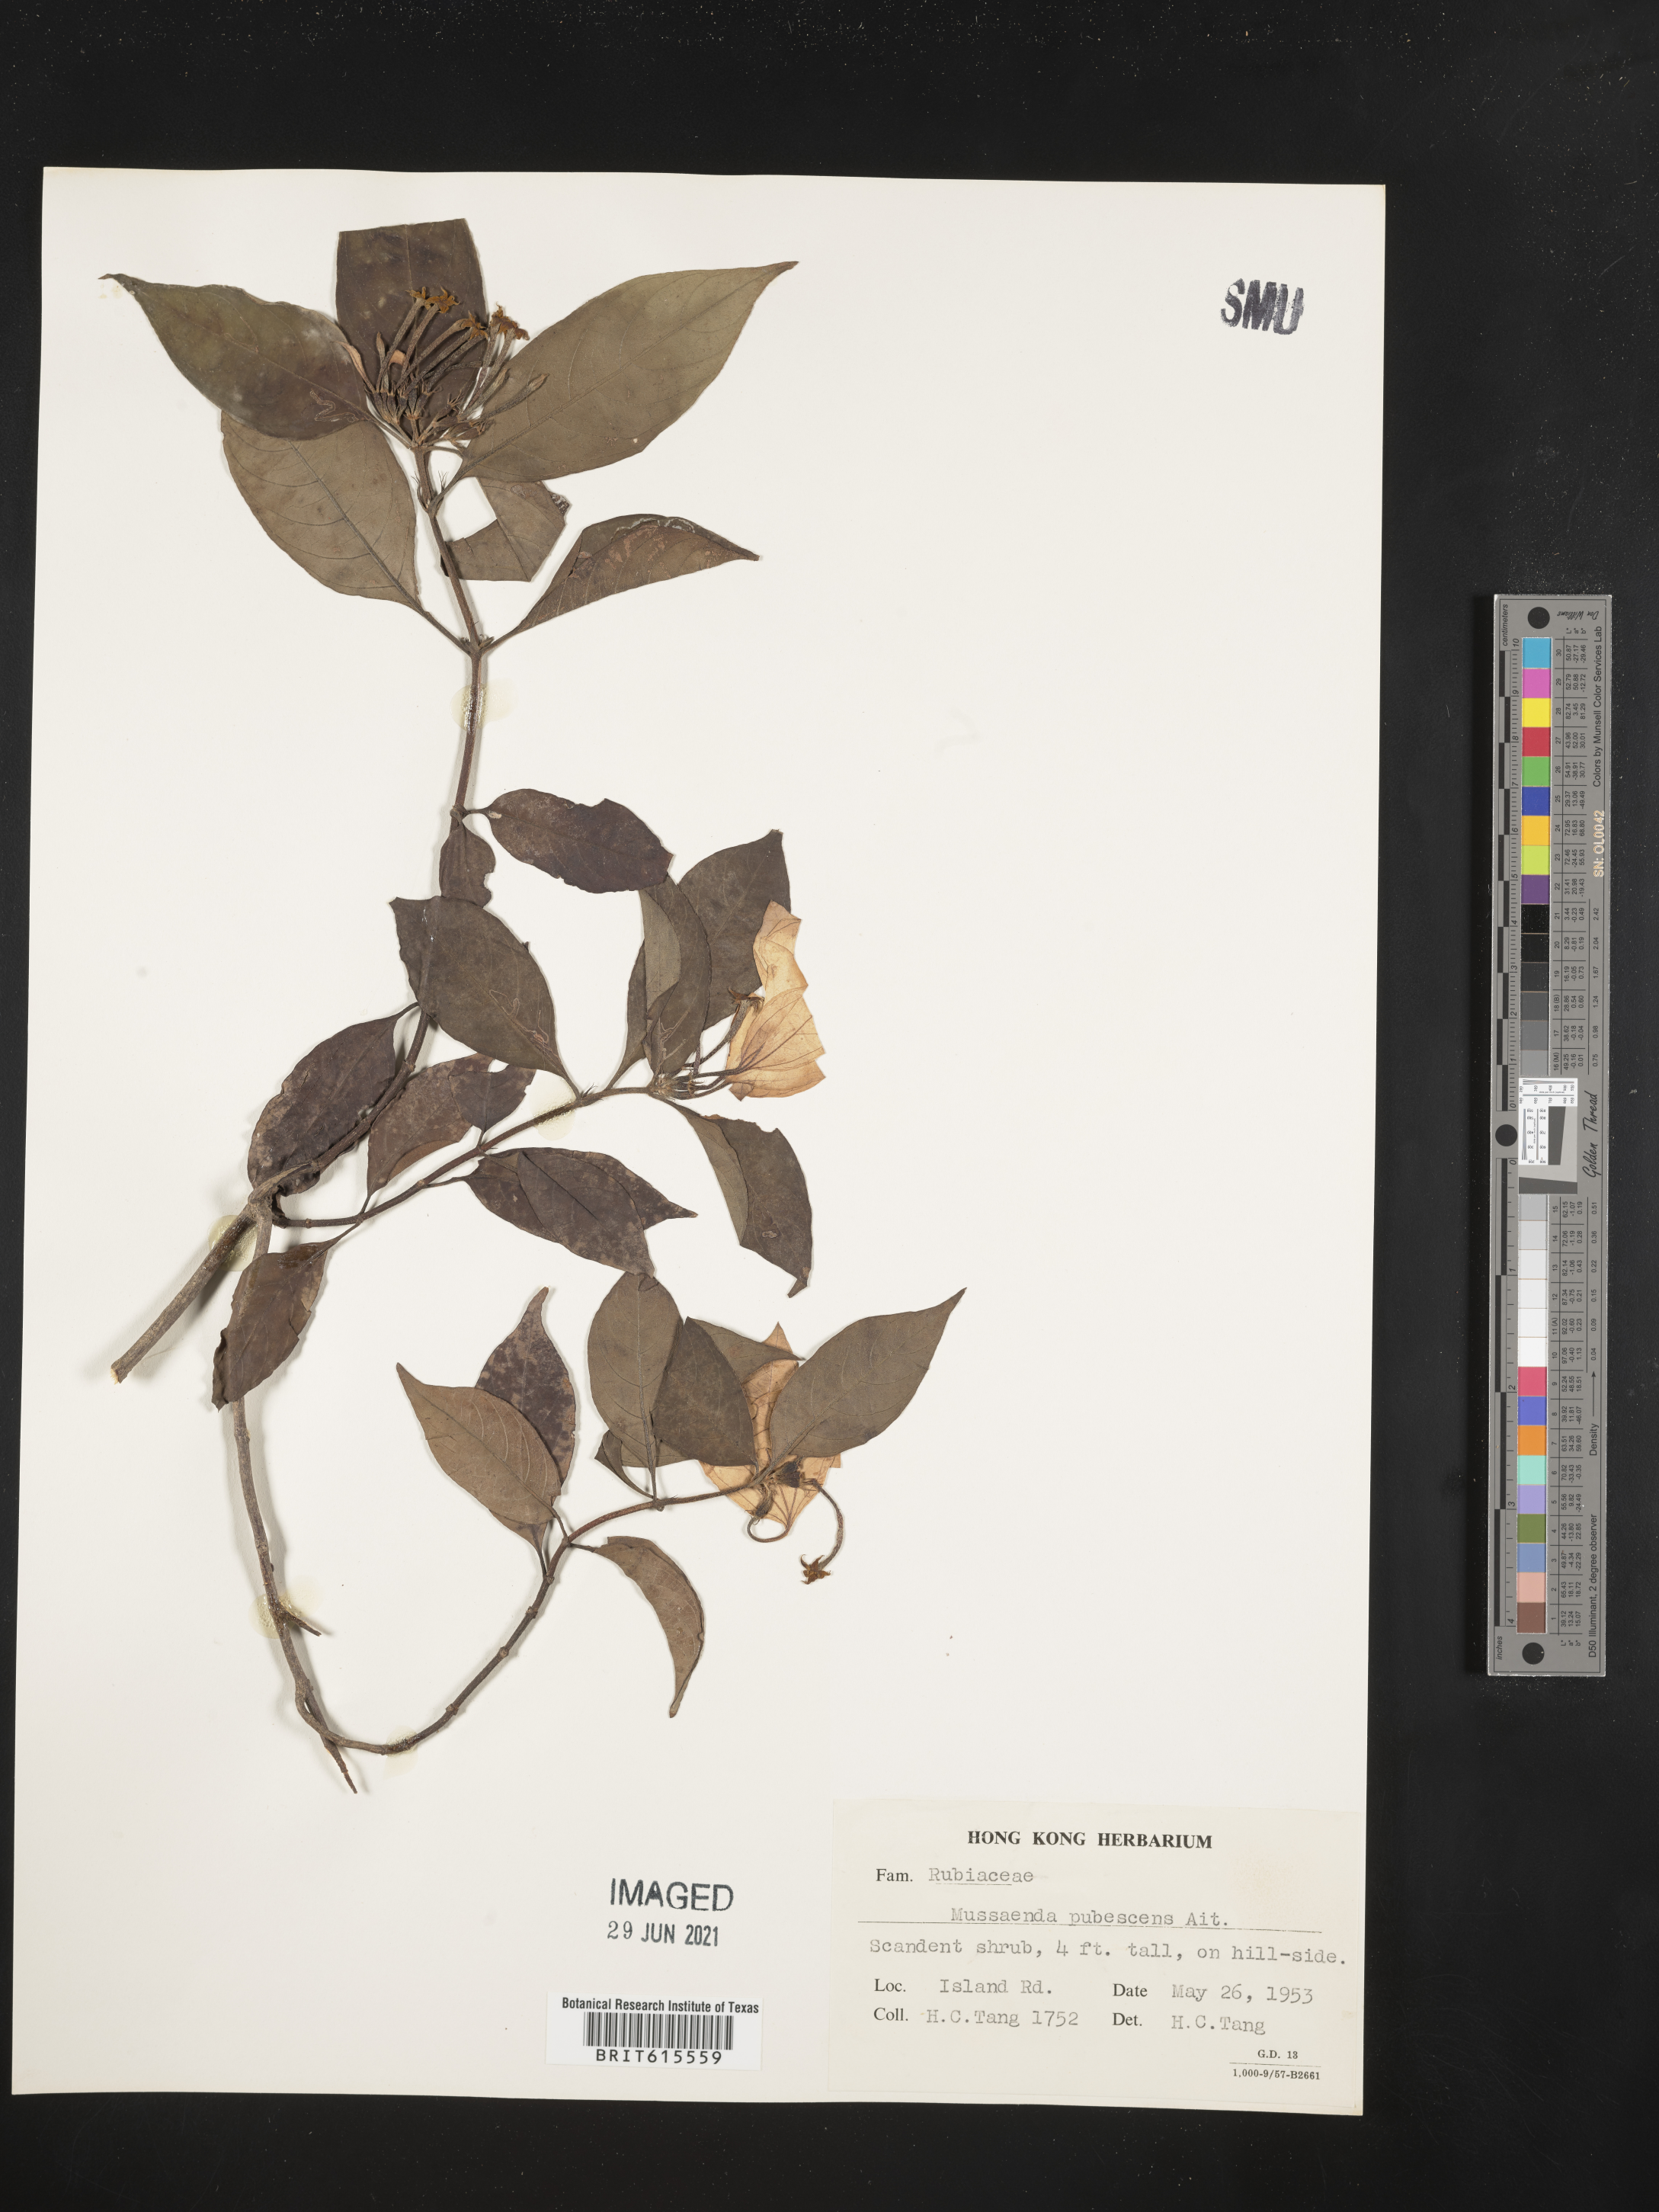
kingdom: Plantae
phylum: Tracheophyta
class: Magnoliopsida
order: Gentianales
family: Rubiaceae
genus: Mussaenda
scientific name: Mussaenda pubescens
